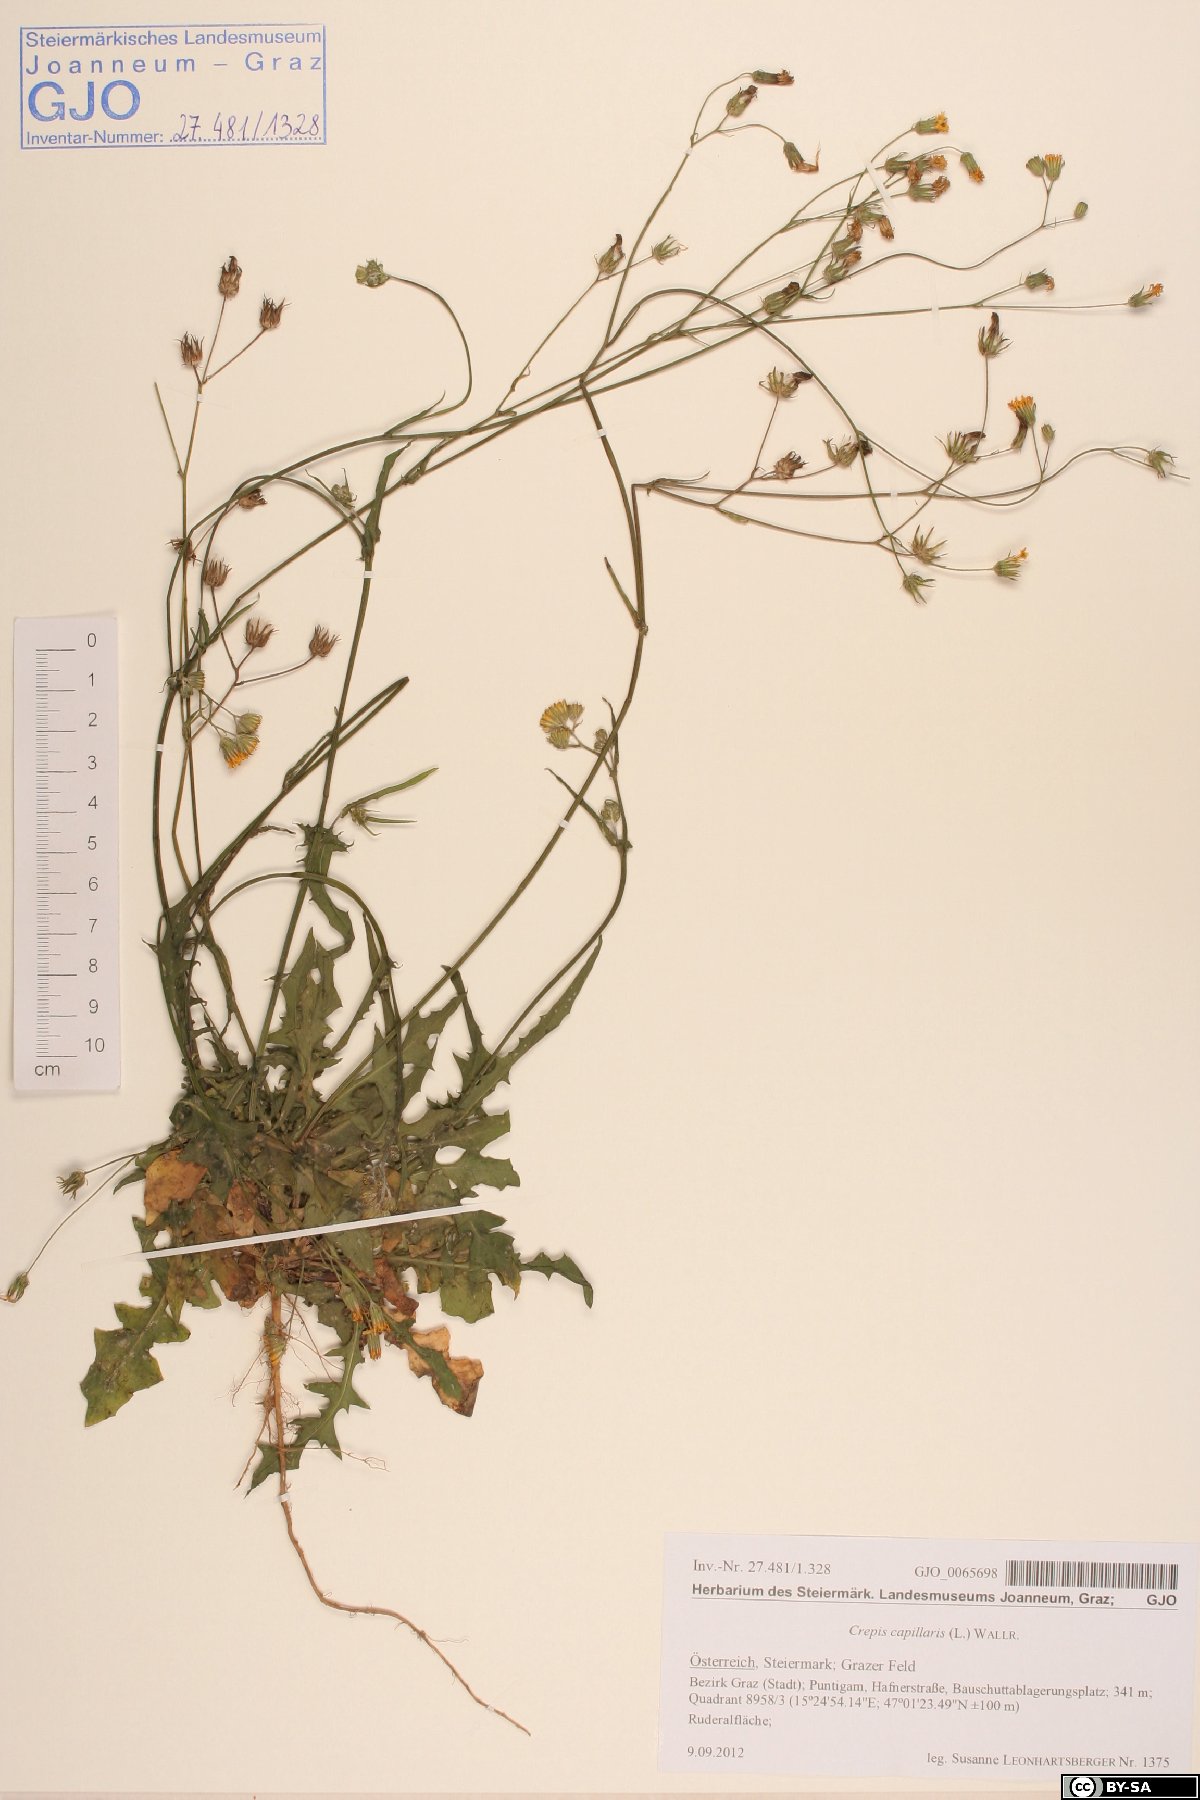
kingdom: Plantae
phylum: Tracheophyta
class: Magnoliopsida
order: Asterales
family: Asteraceae
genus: Crepis
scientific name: Crepis capillaris
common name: Smooth hawksbeard
